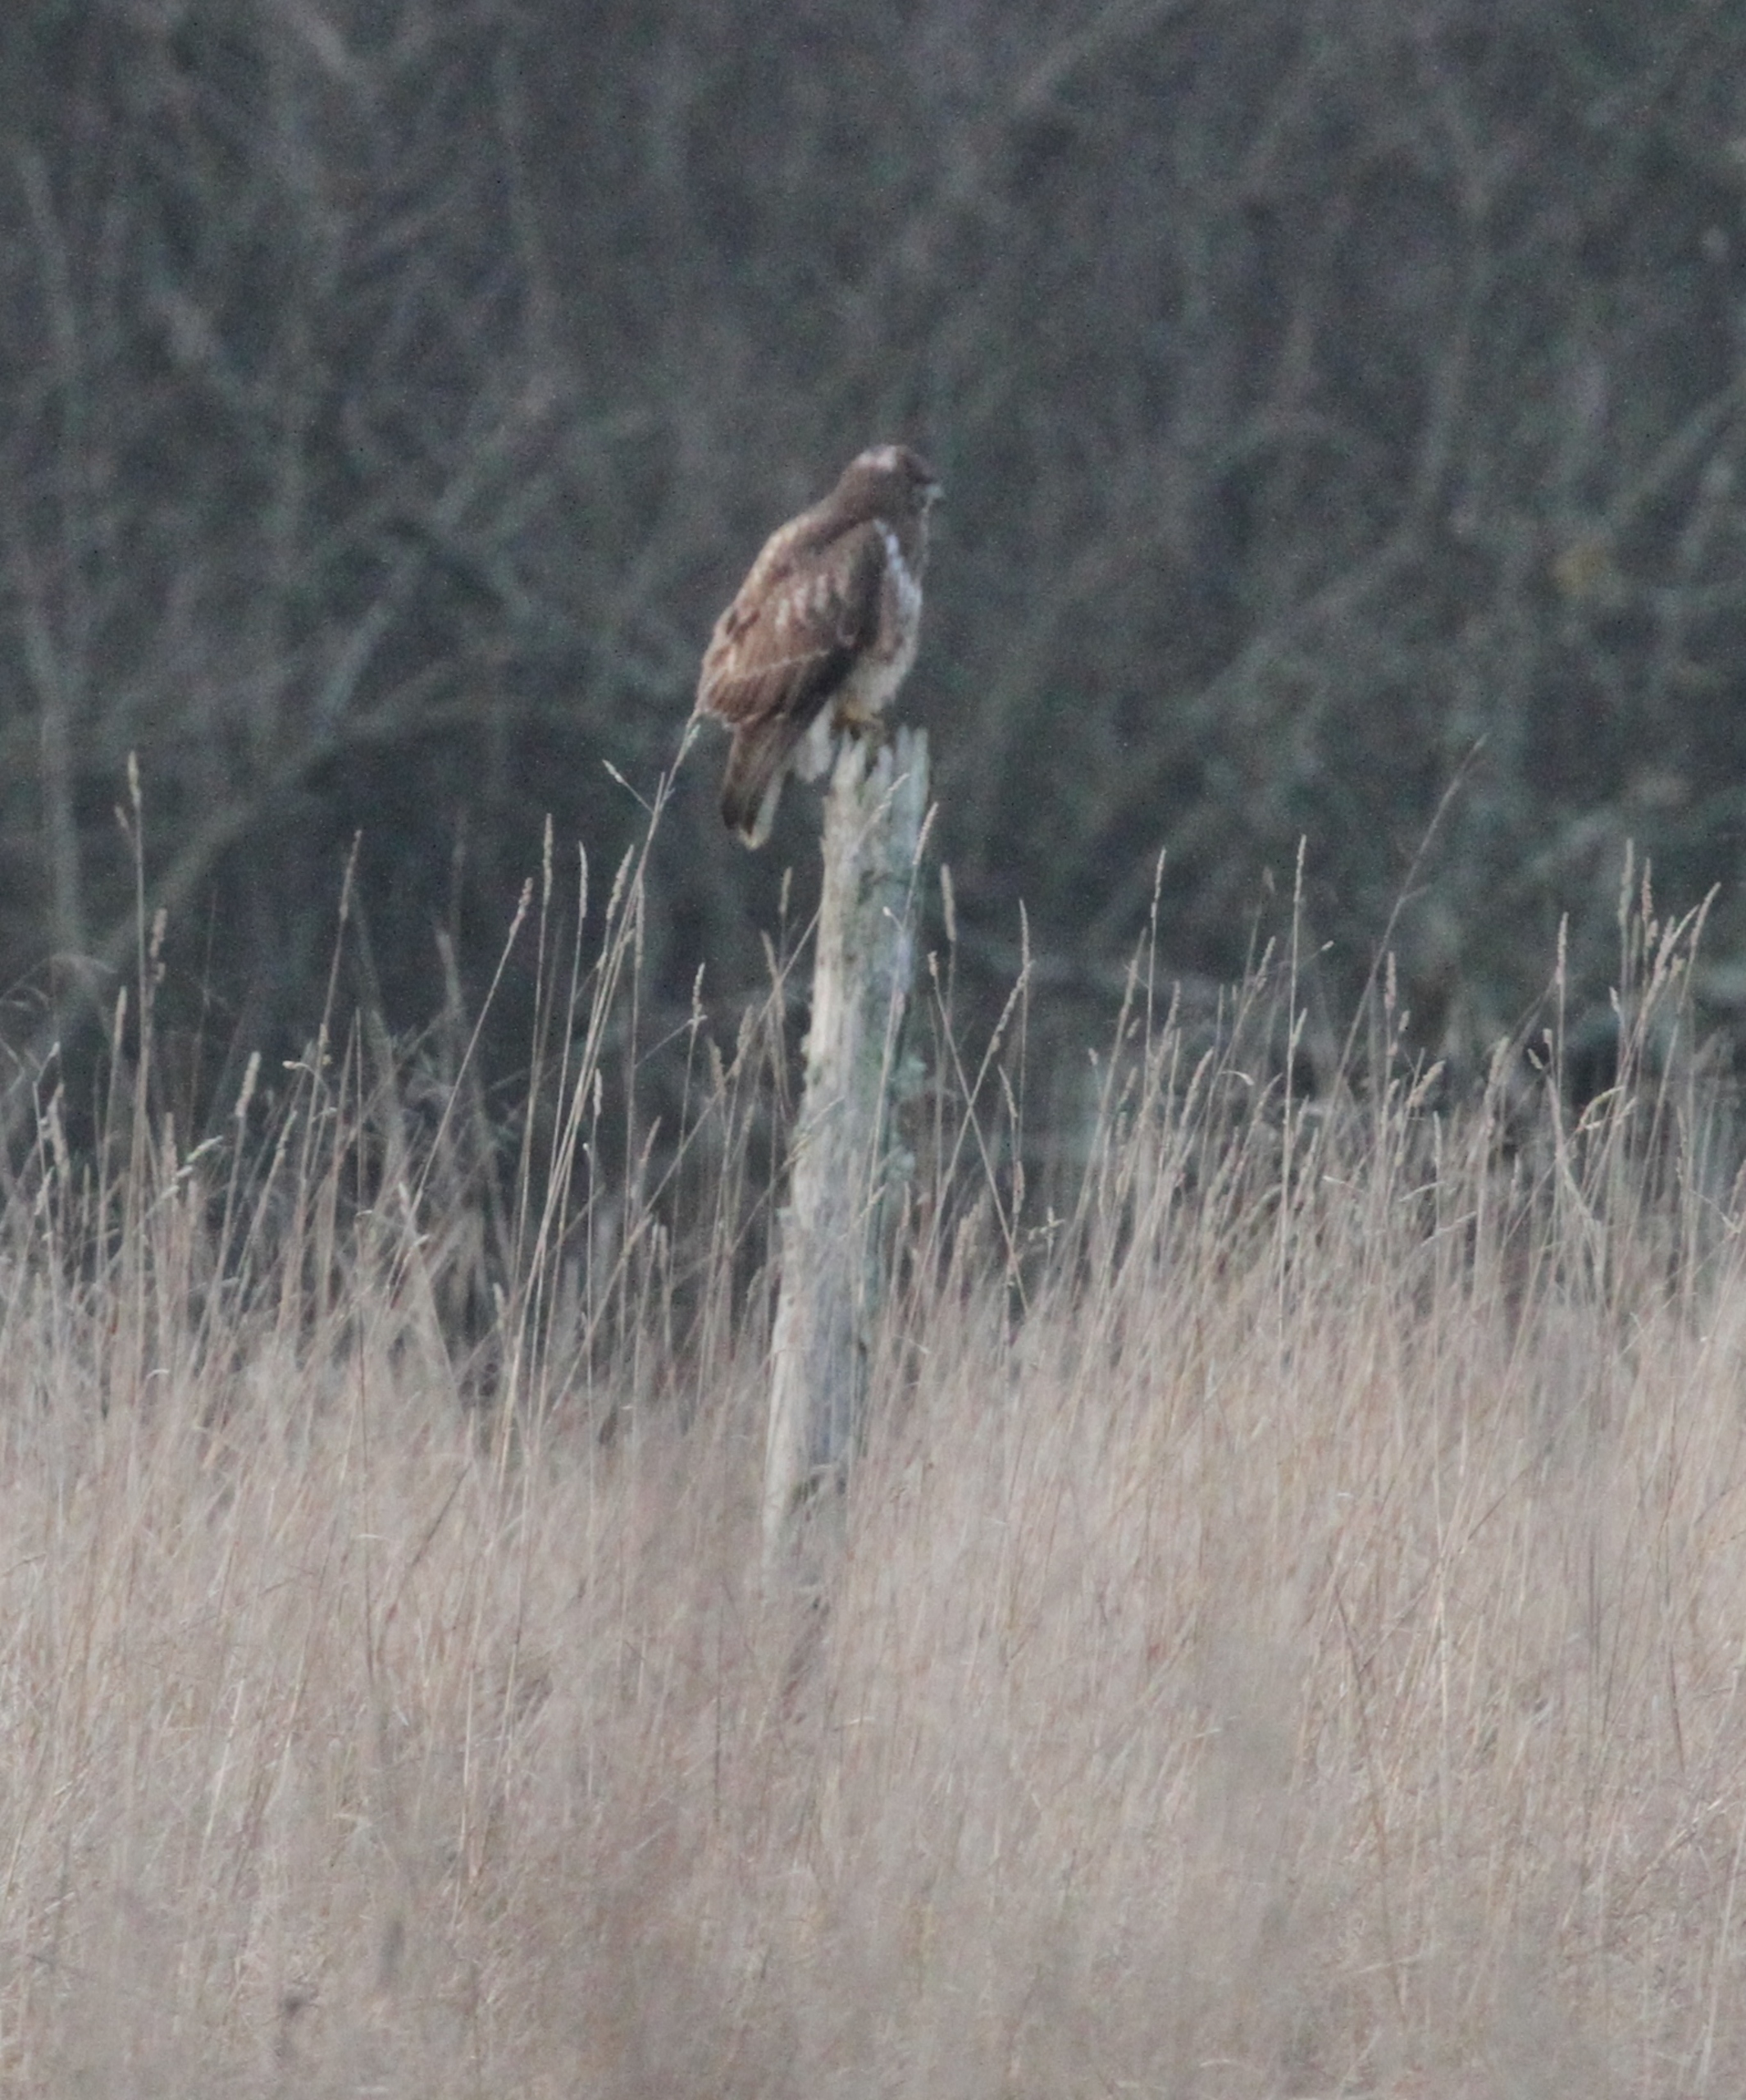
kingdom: Animalia
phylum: Chordata
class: Aves
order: Accipitriformes
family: Accipitridae
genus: Buteo
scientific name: Buteo buteo
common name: Musvåge
